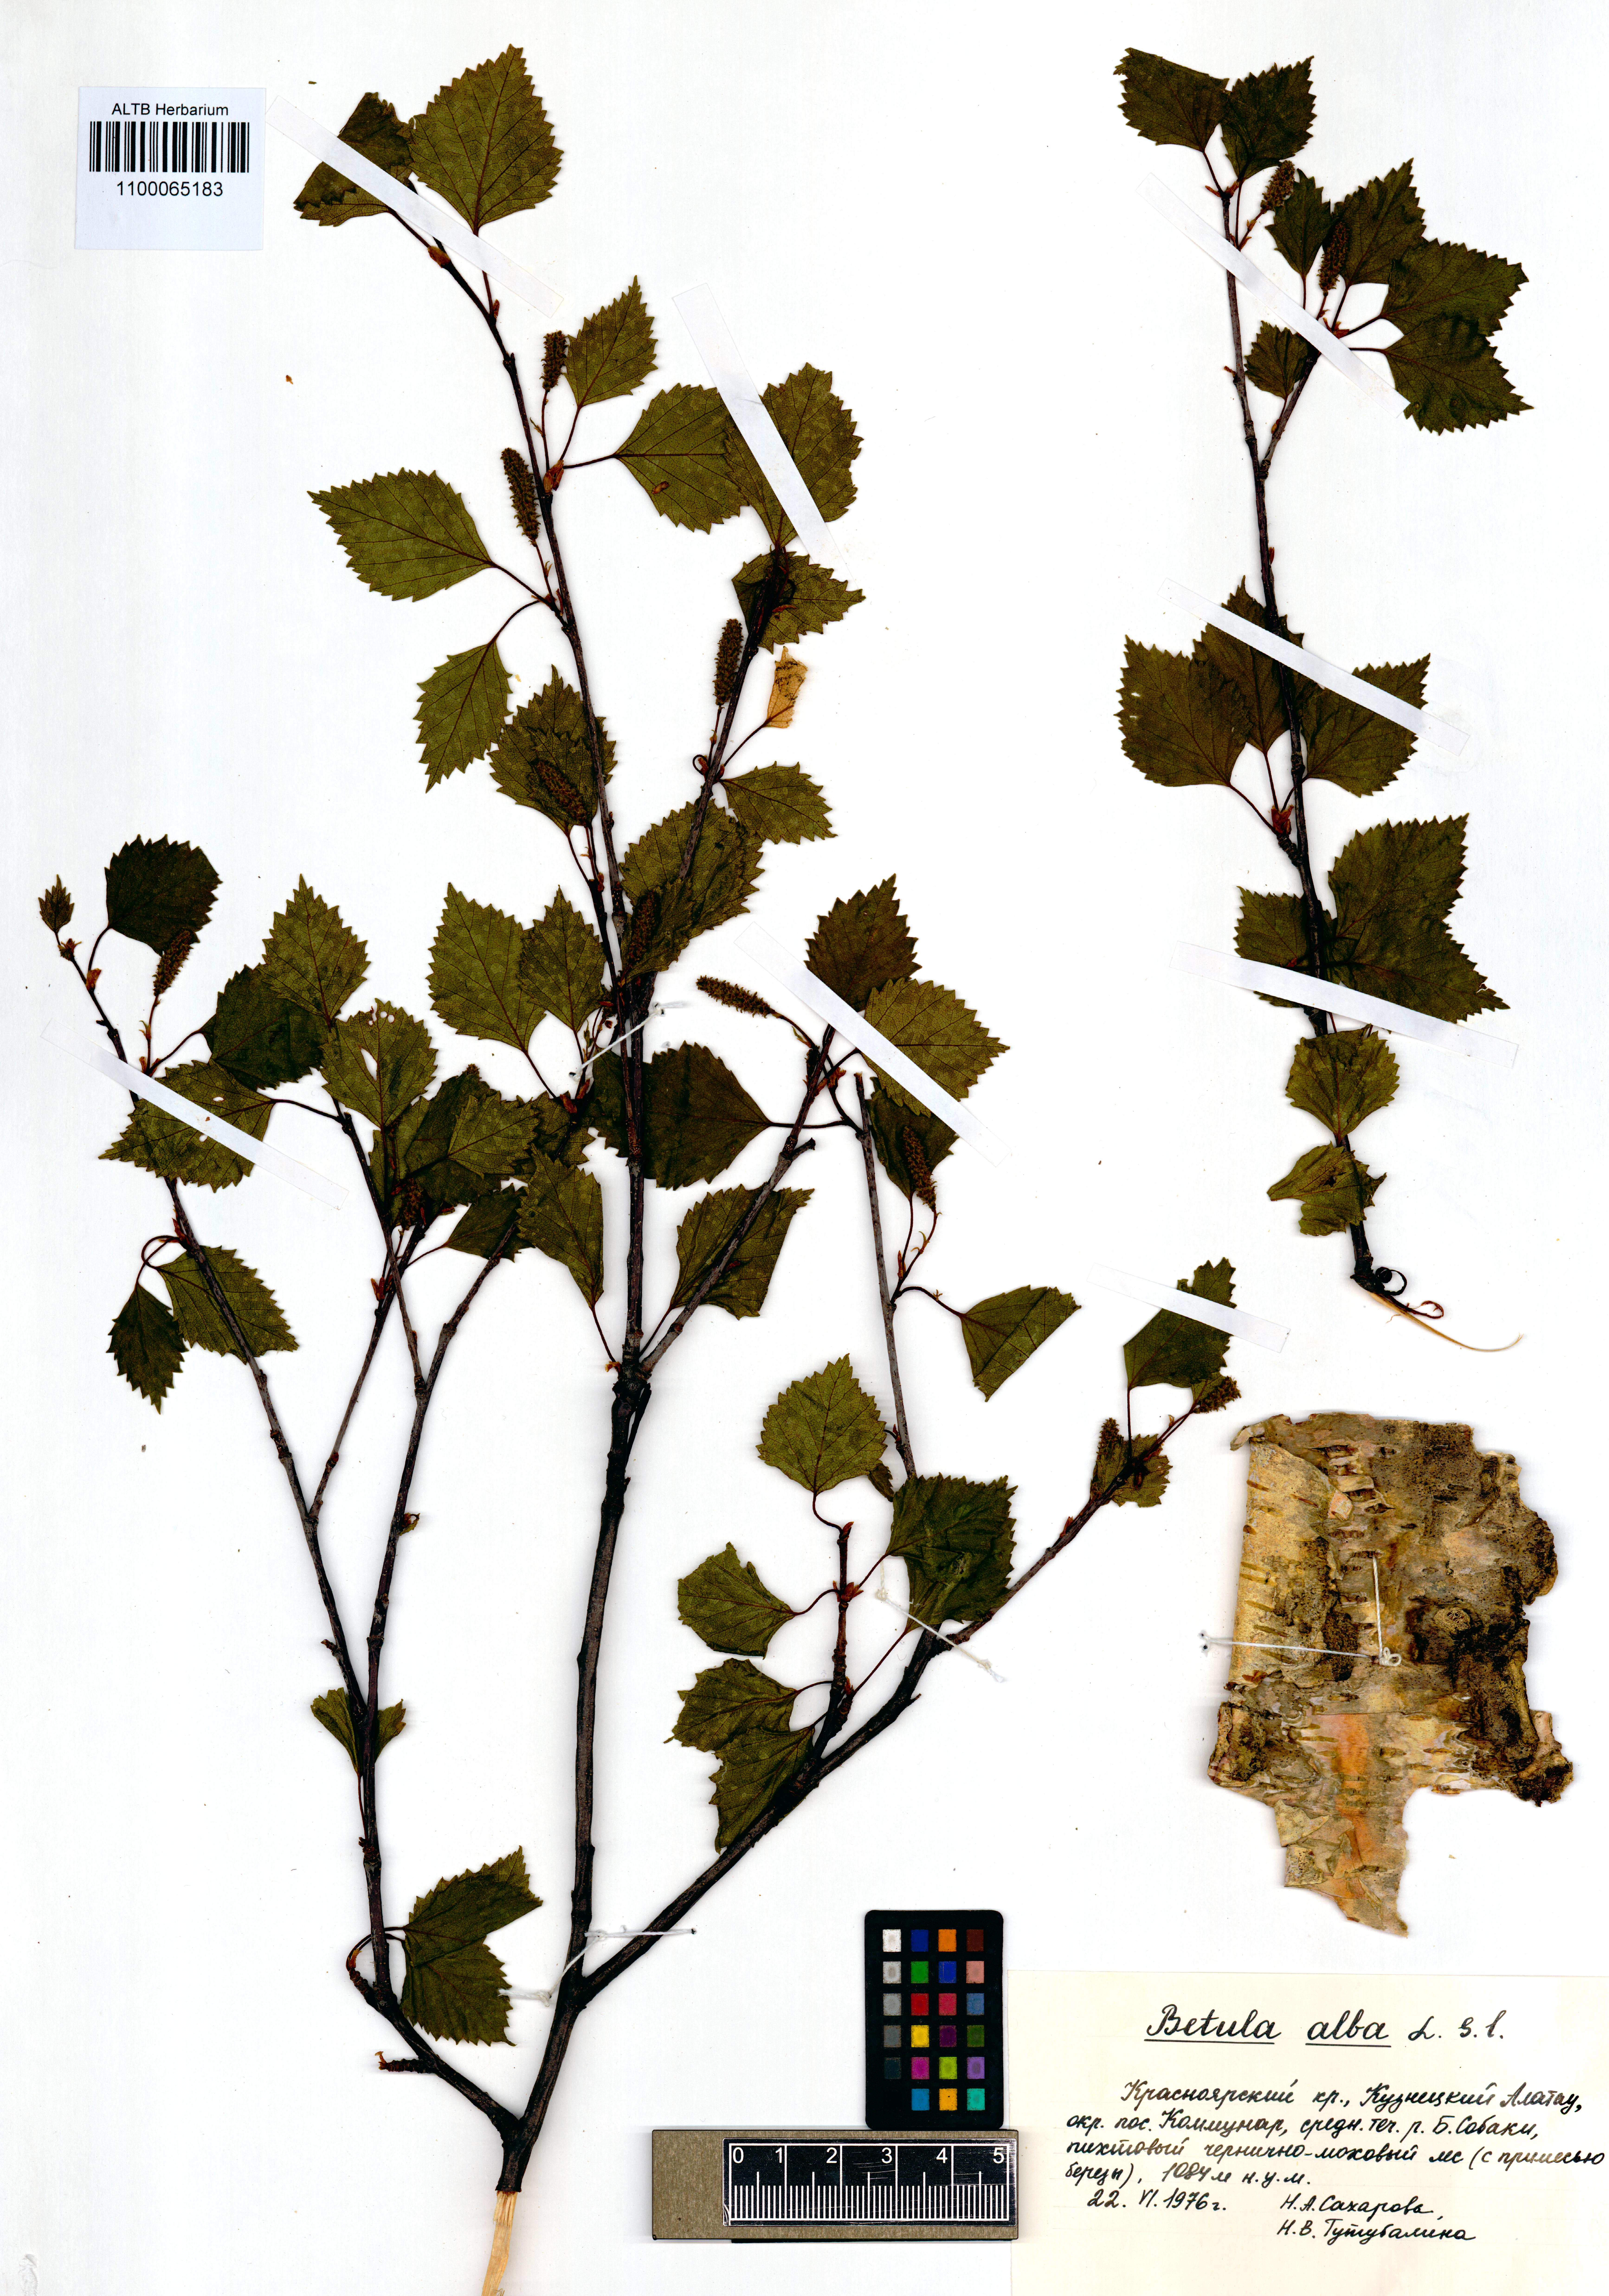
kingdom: Plantae
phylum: Tracheophyta
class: Magnoliopsida
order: Fagales
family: Betulaceae
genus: Betula
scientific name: Betula pubescens
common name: Downy birch
